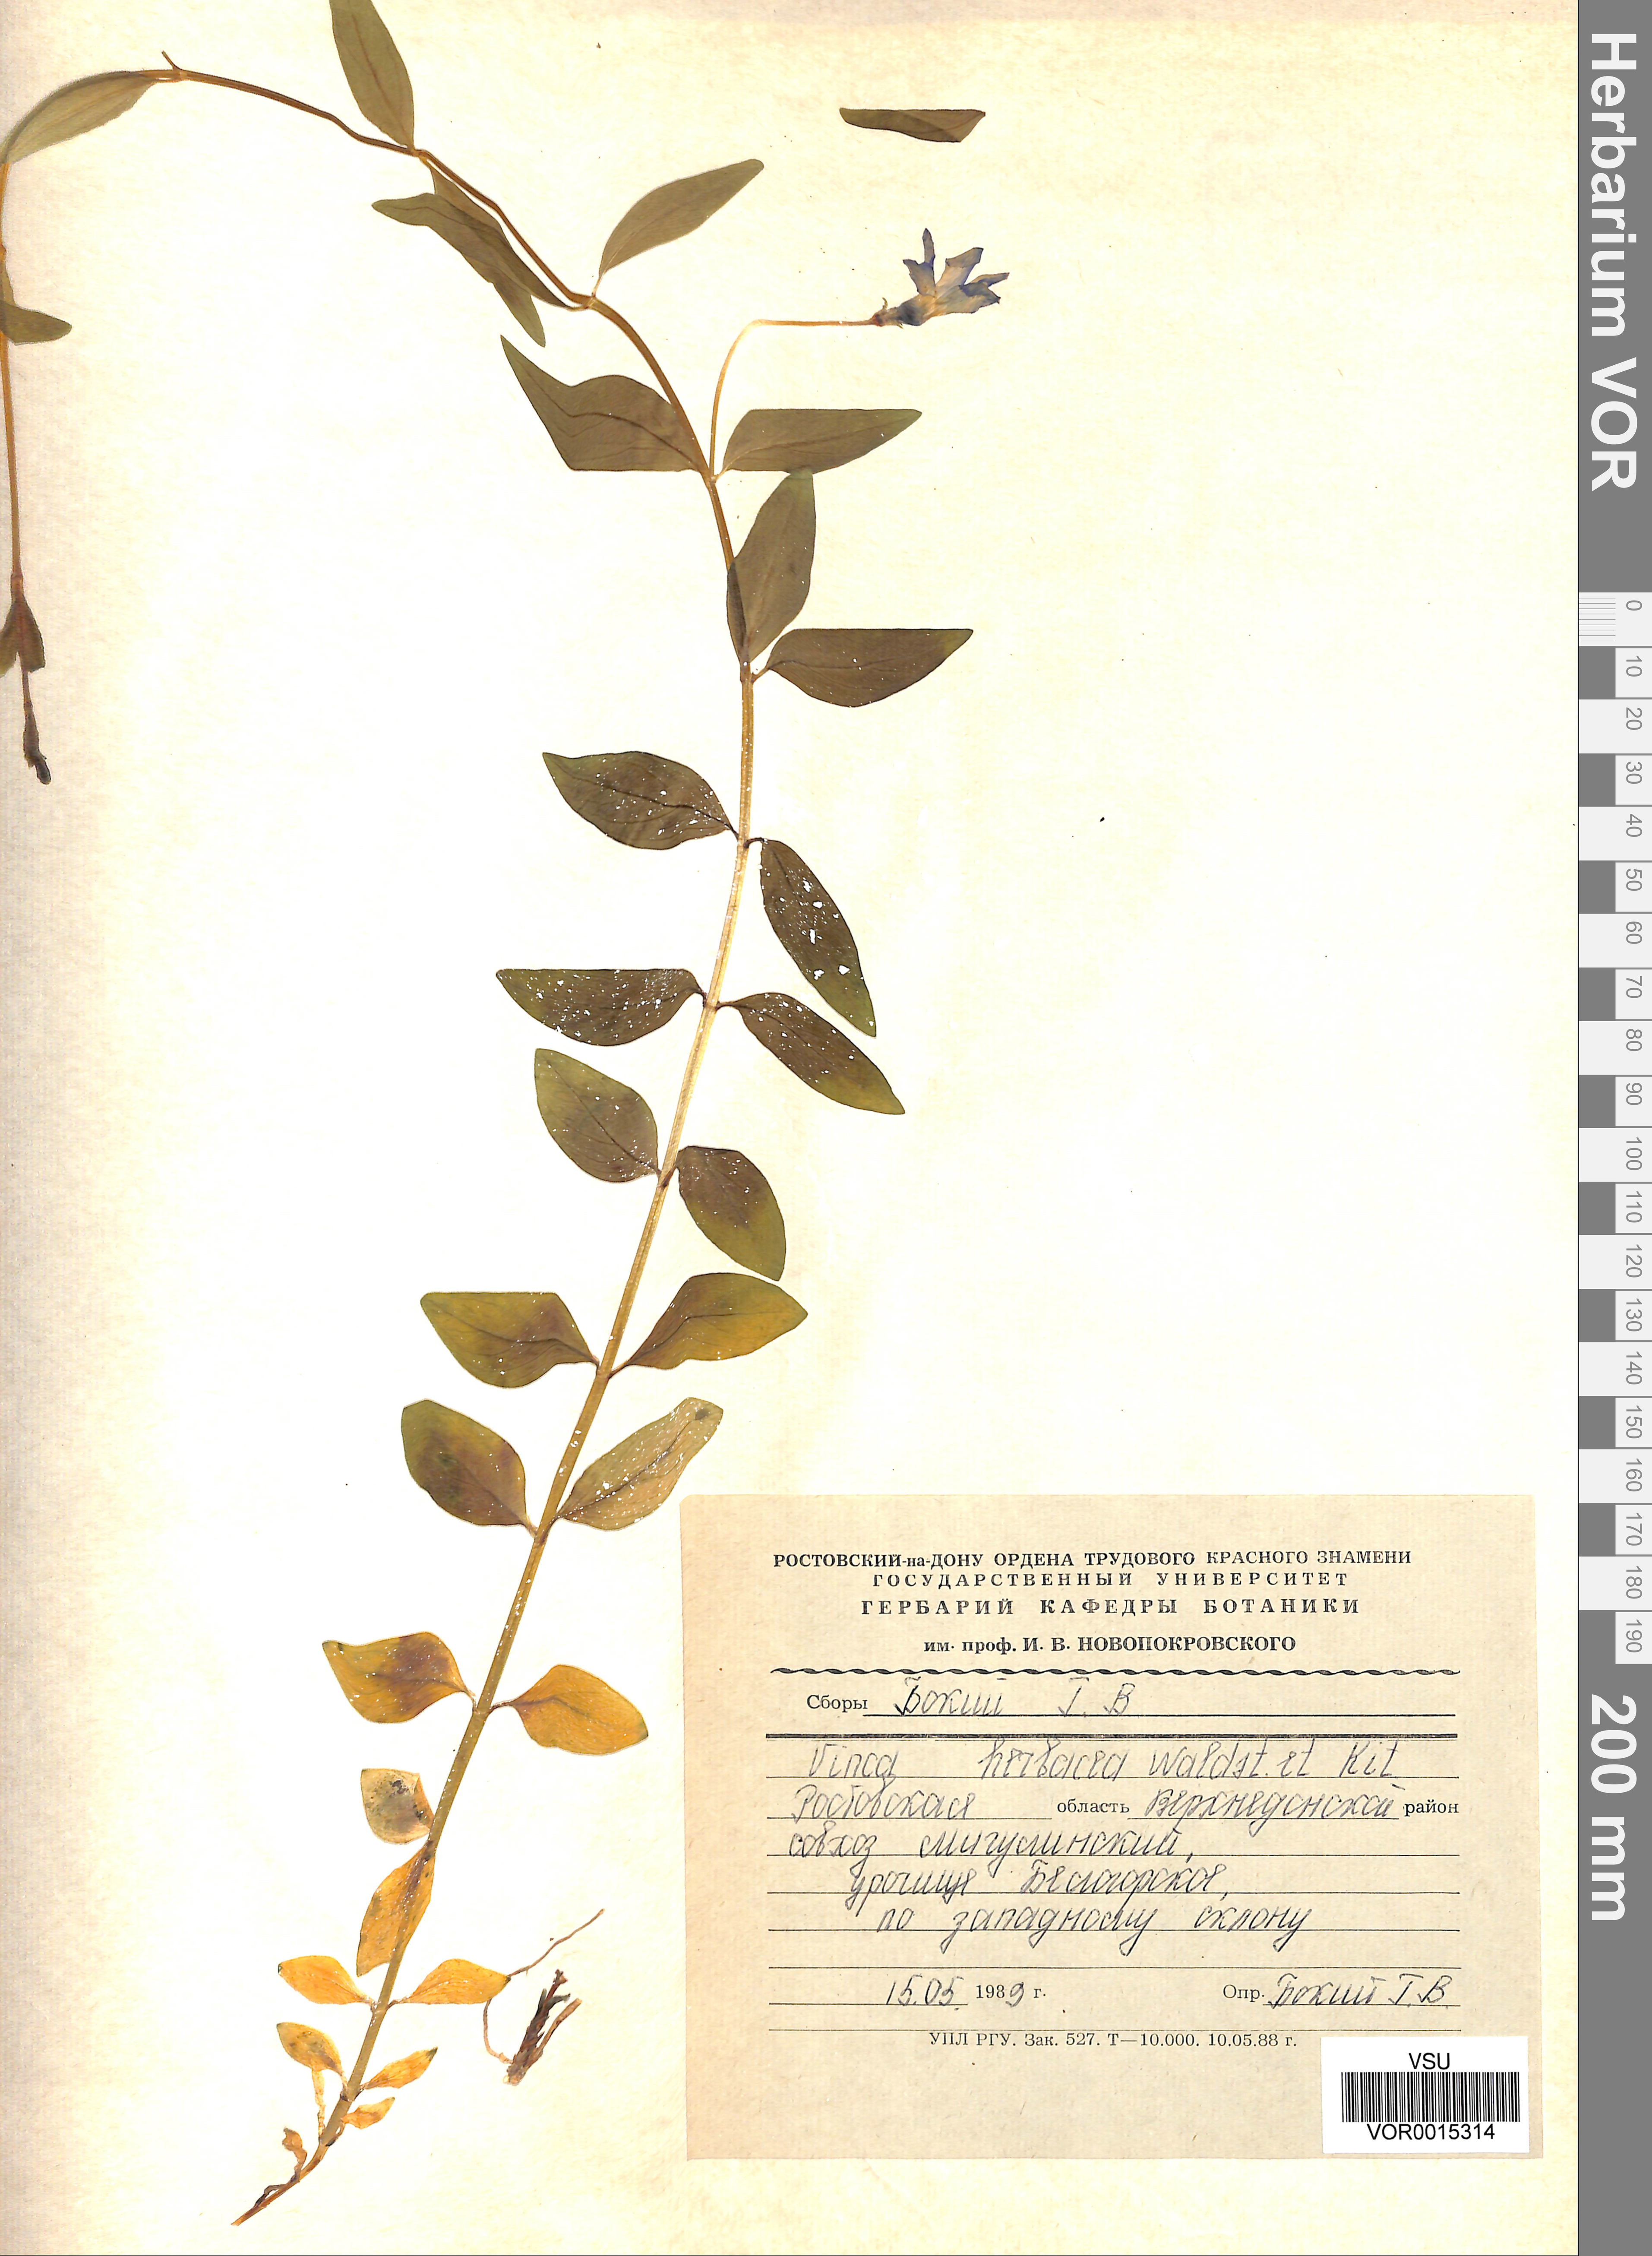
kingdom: Plantae
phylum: Tracheophyta
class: Magnoliopsida
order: Gentianales
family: Apocynaceae
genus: Vinca
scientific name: Vinca herbacea
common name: Herbaceous periwinkle
